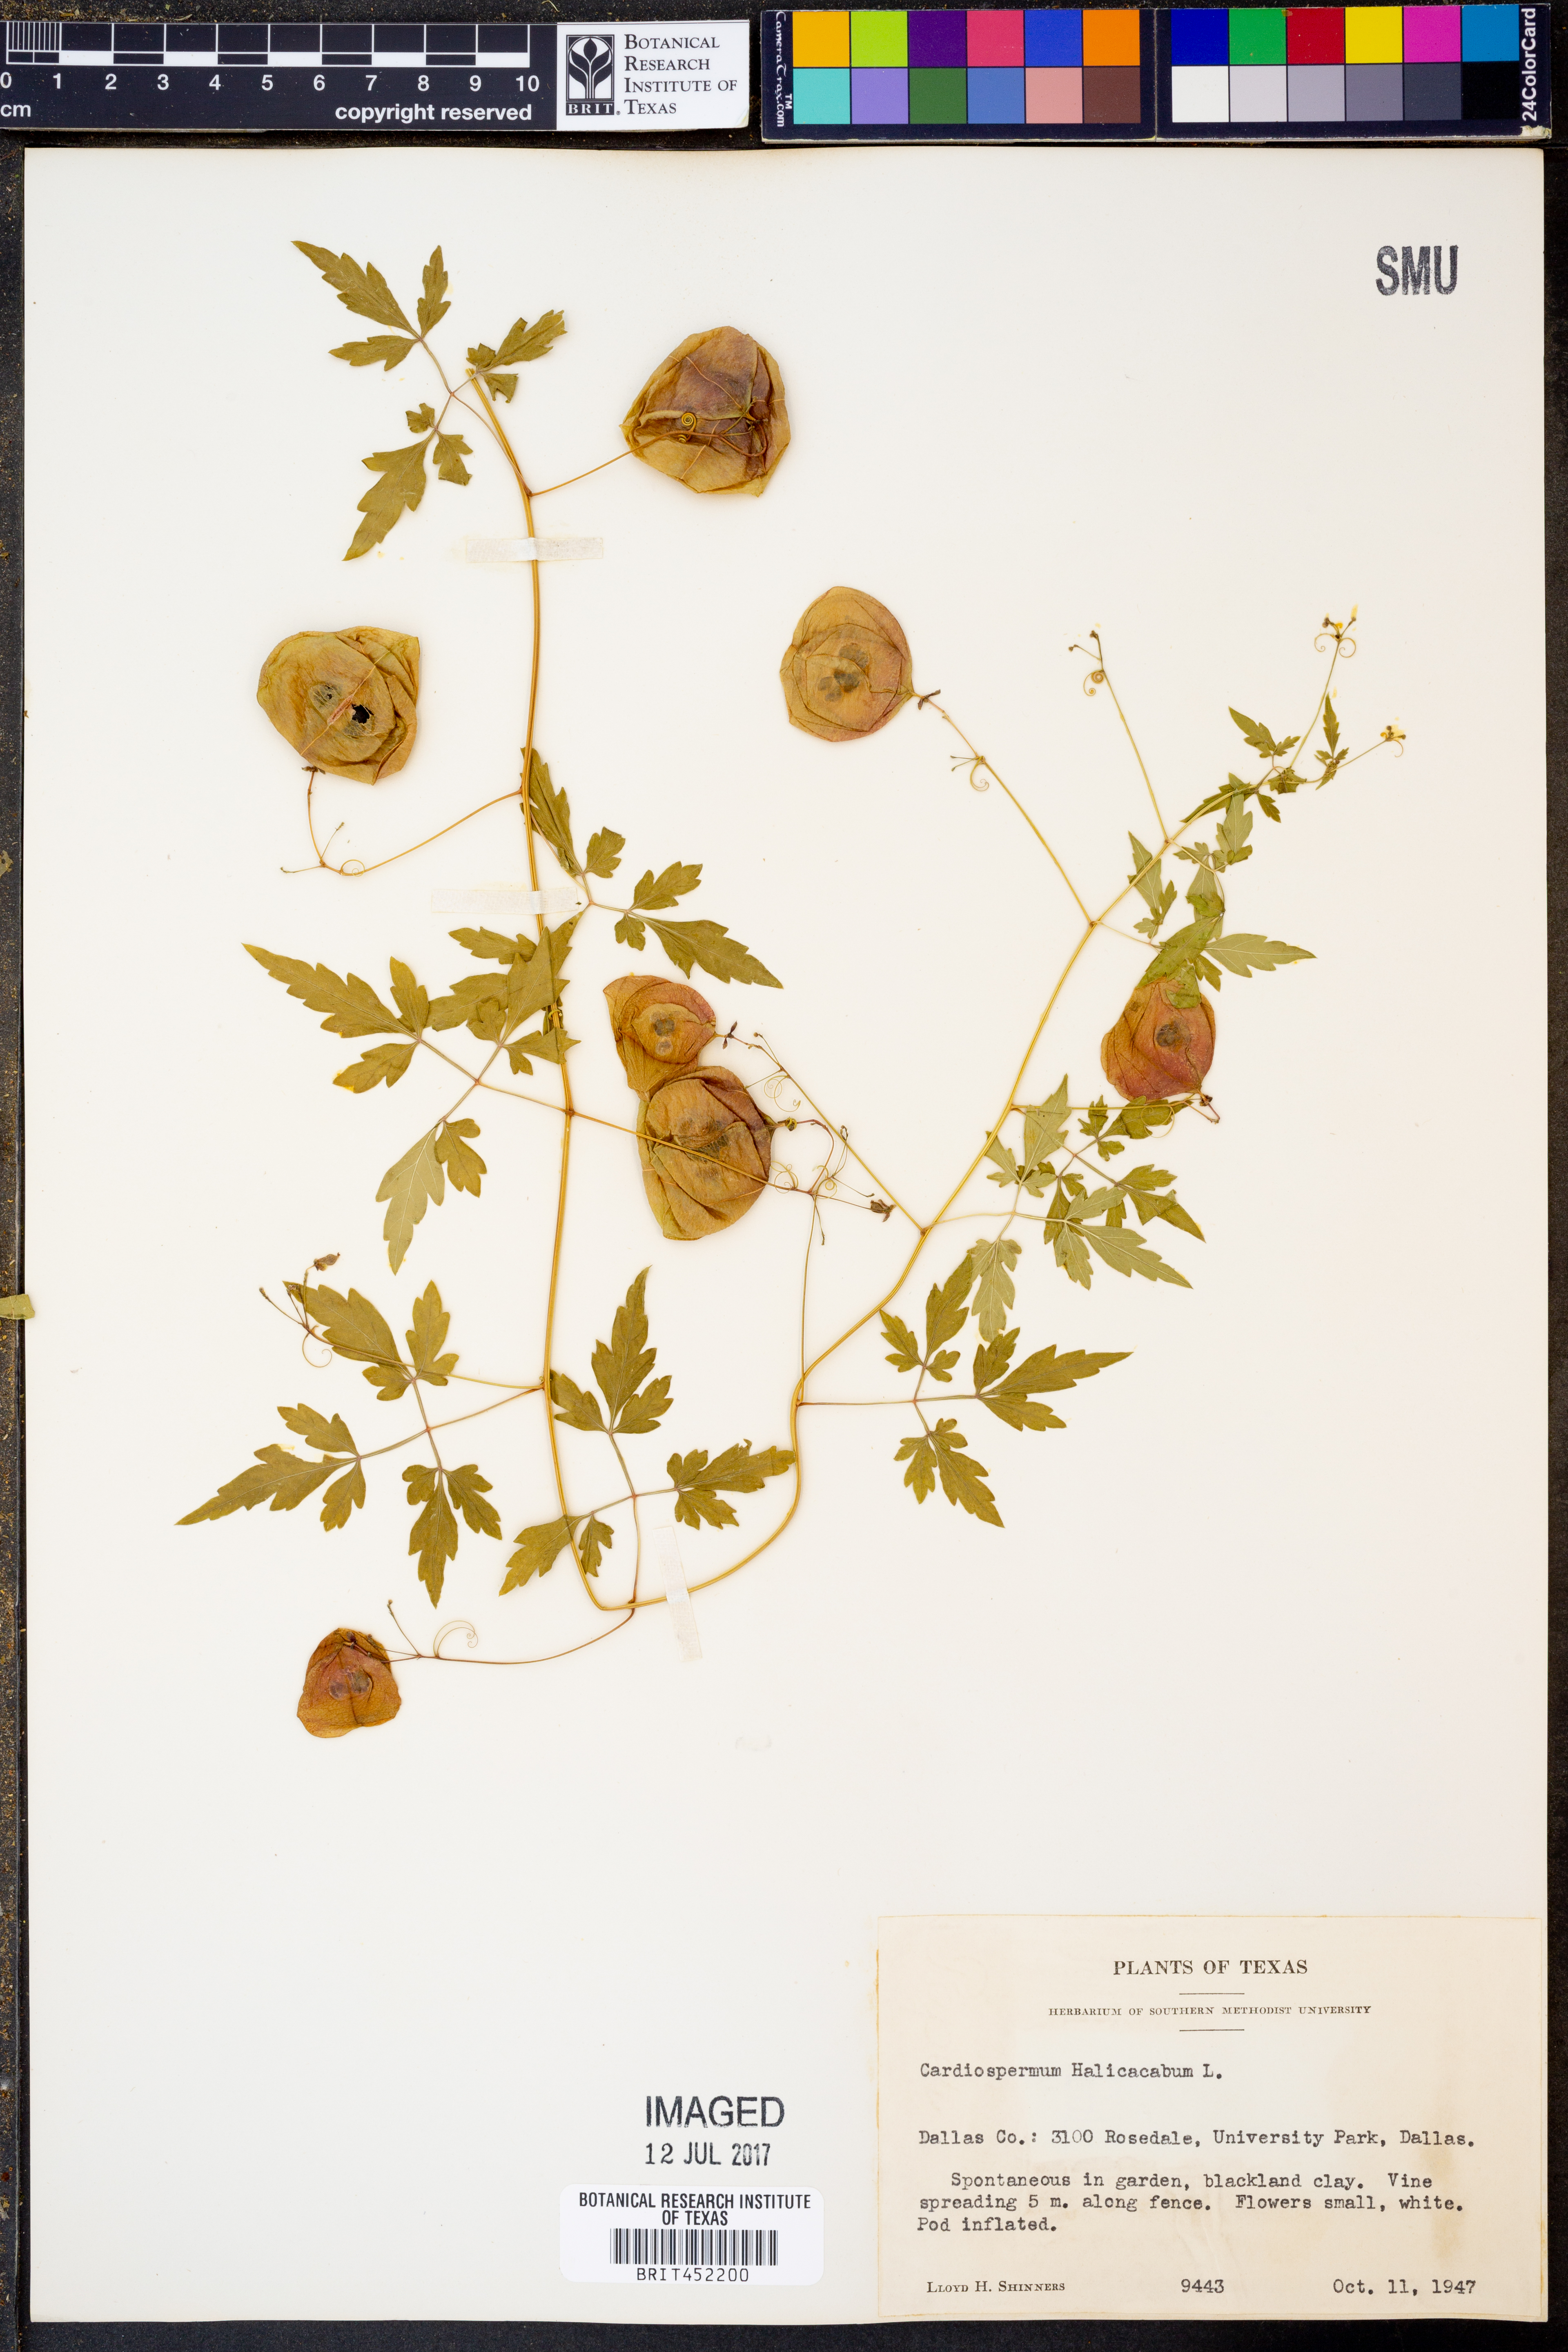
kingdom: Plantae
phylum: Tracheophyta
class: Magnoliopsida
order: Sapindales
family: Sapindaceae
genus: Cardiospermum
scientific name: Cardiospermum halicacabum
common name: Balloon vine
